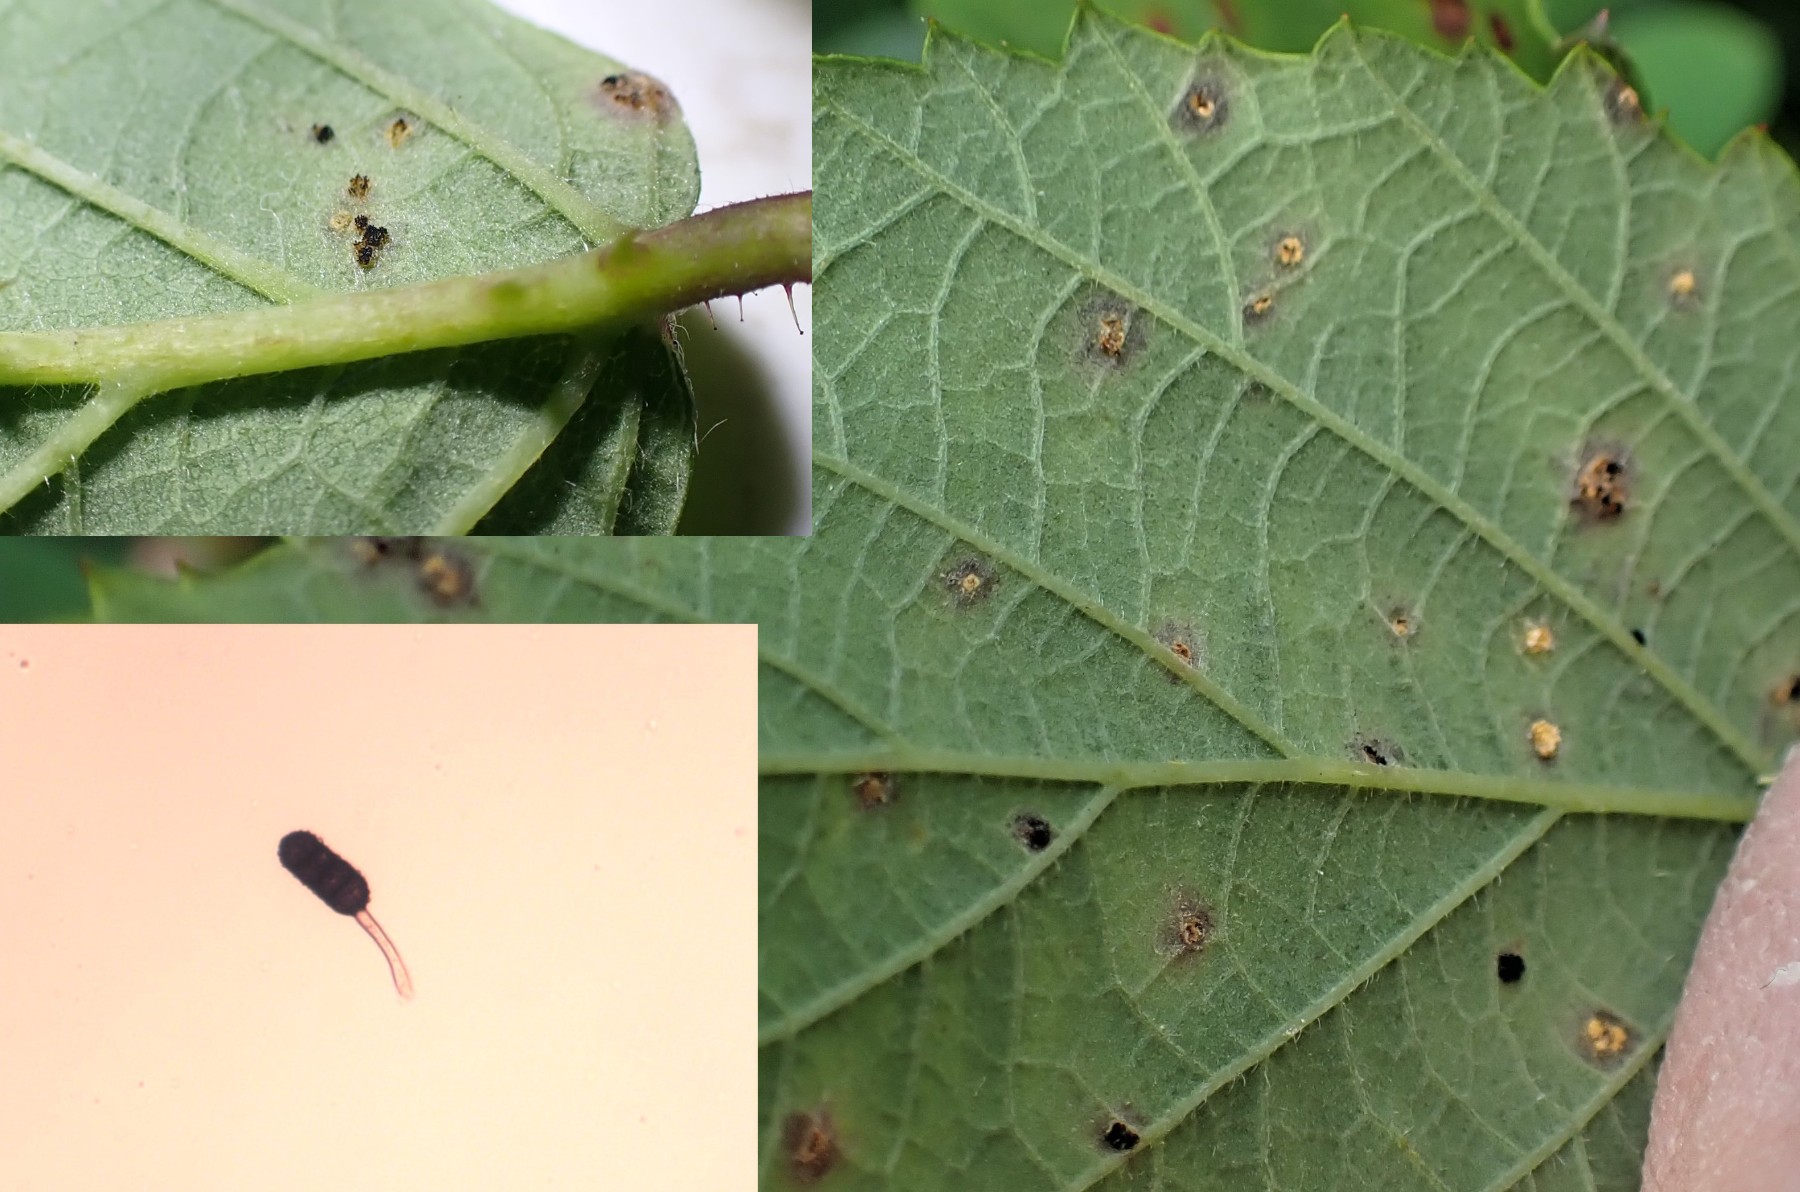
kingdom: Fungi
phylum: Basidiomycota
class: Pucciniomycetes
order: Pucciniales
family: Phragmidiaceae
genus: Phragmidium
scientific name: Phragmidium violaceum
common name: violet flercellerust
